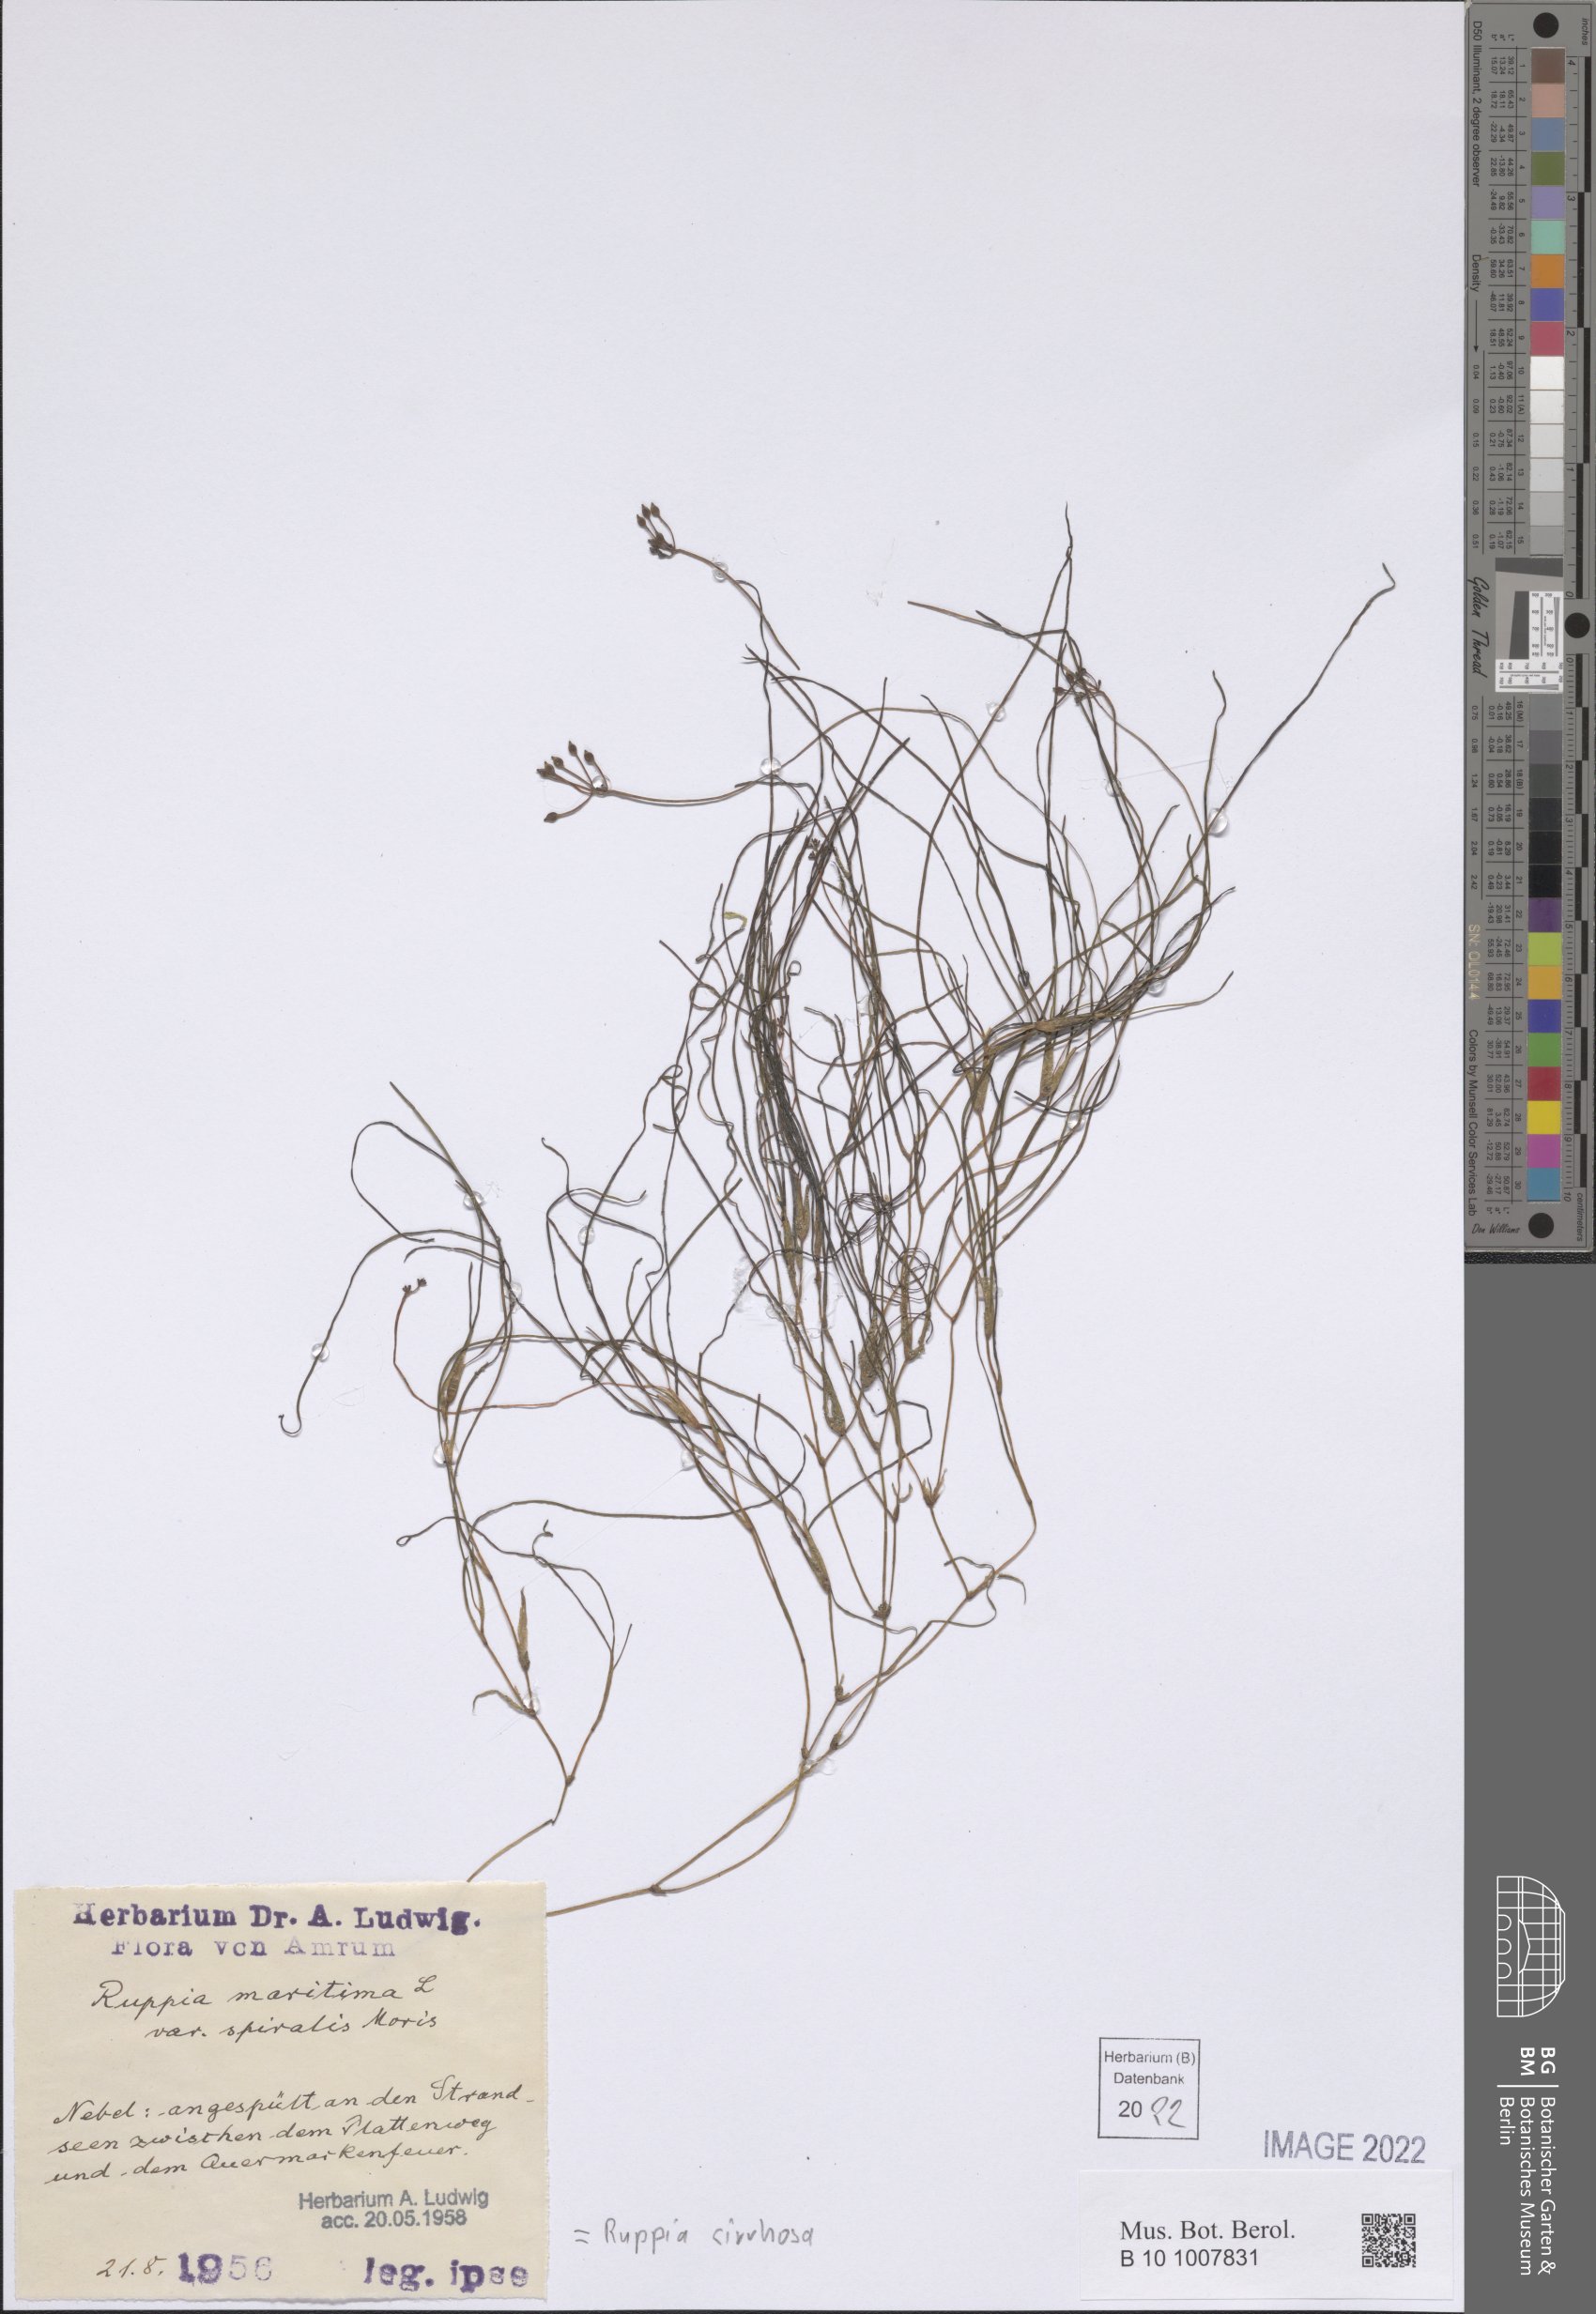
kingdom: Plantae
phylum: Tracheophyta
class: Liliopsida
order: Alismatales
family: Ruppiaceae
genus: Ruppia
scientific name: Ruppia cirrhosa
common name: Spiral tasselweed
